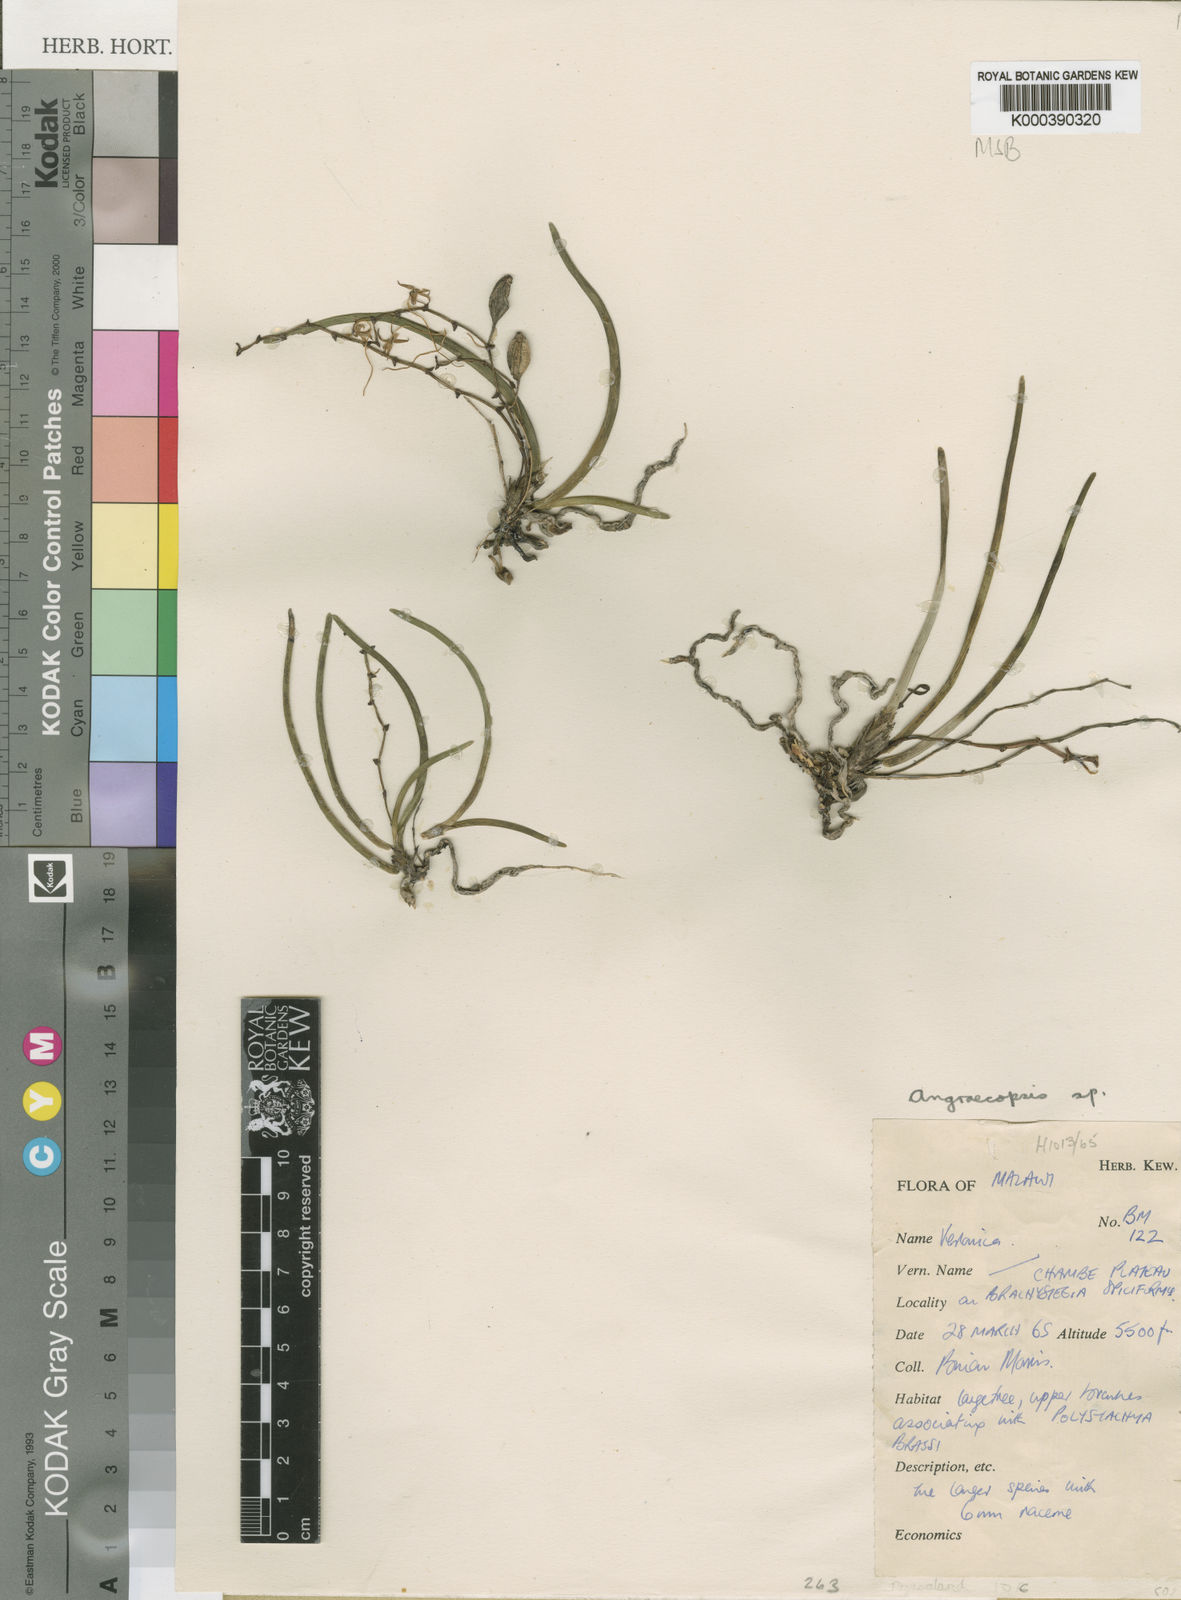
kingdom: Plantae
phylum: Tracheophyta
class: Liliopsida
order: Asparagales
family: Orchidaceae
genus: Ypsilopus
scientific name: Ypsilopus erectus
